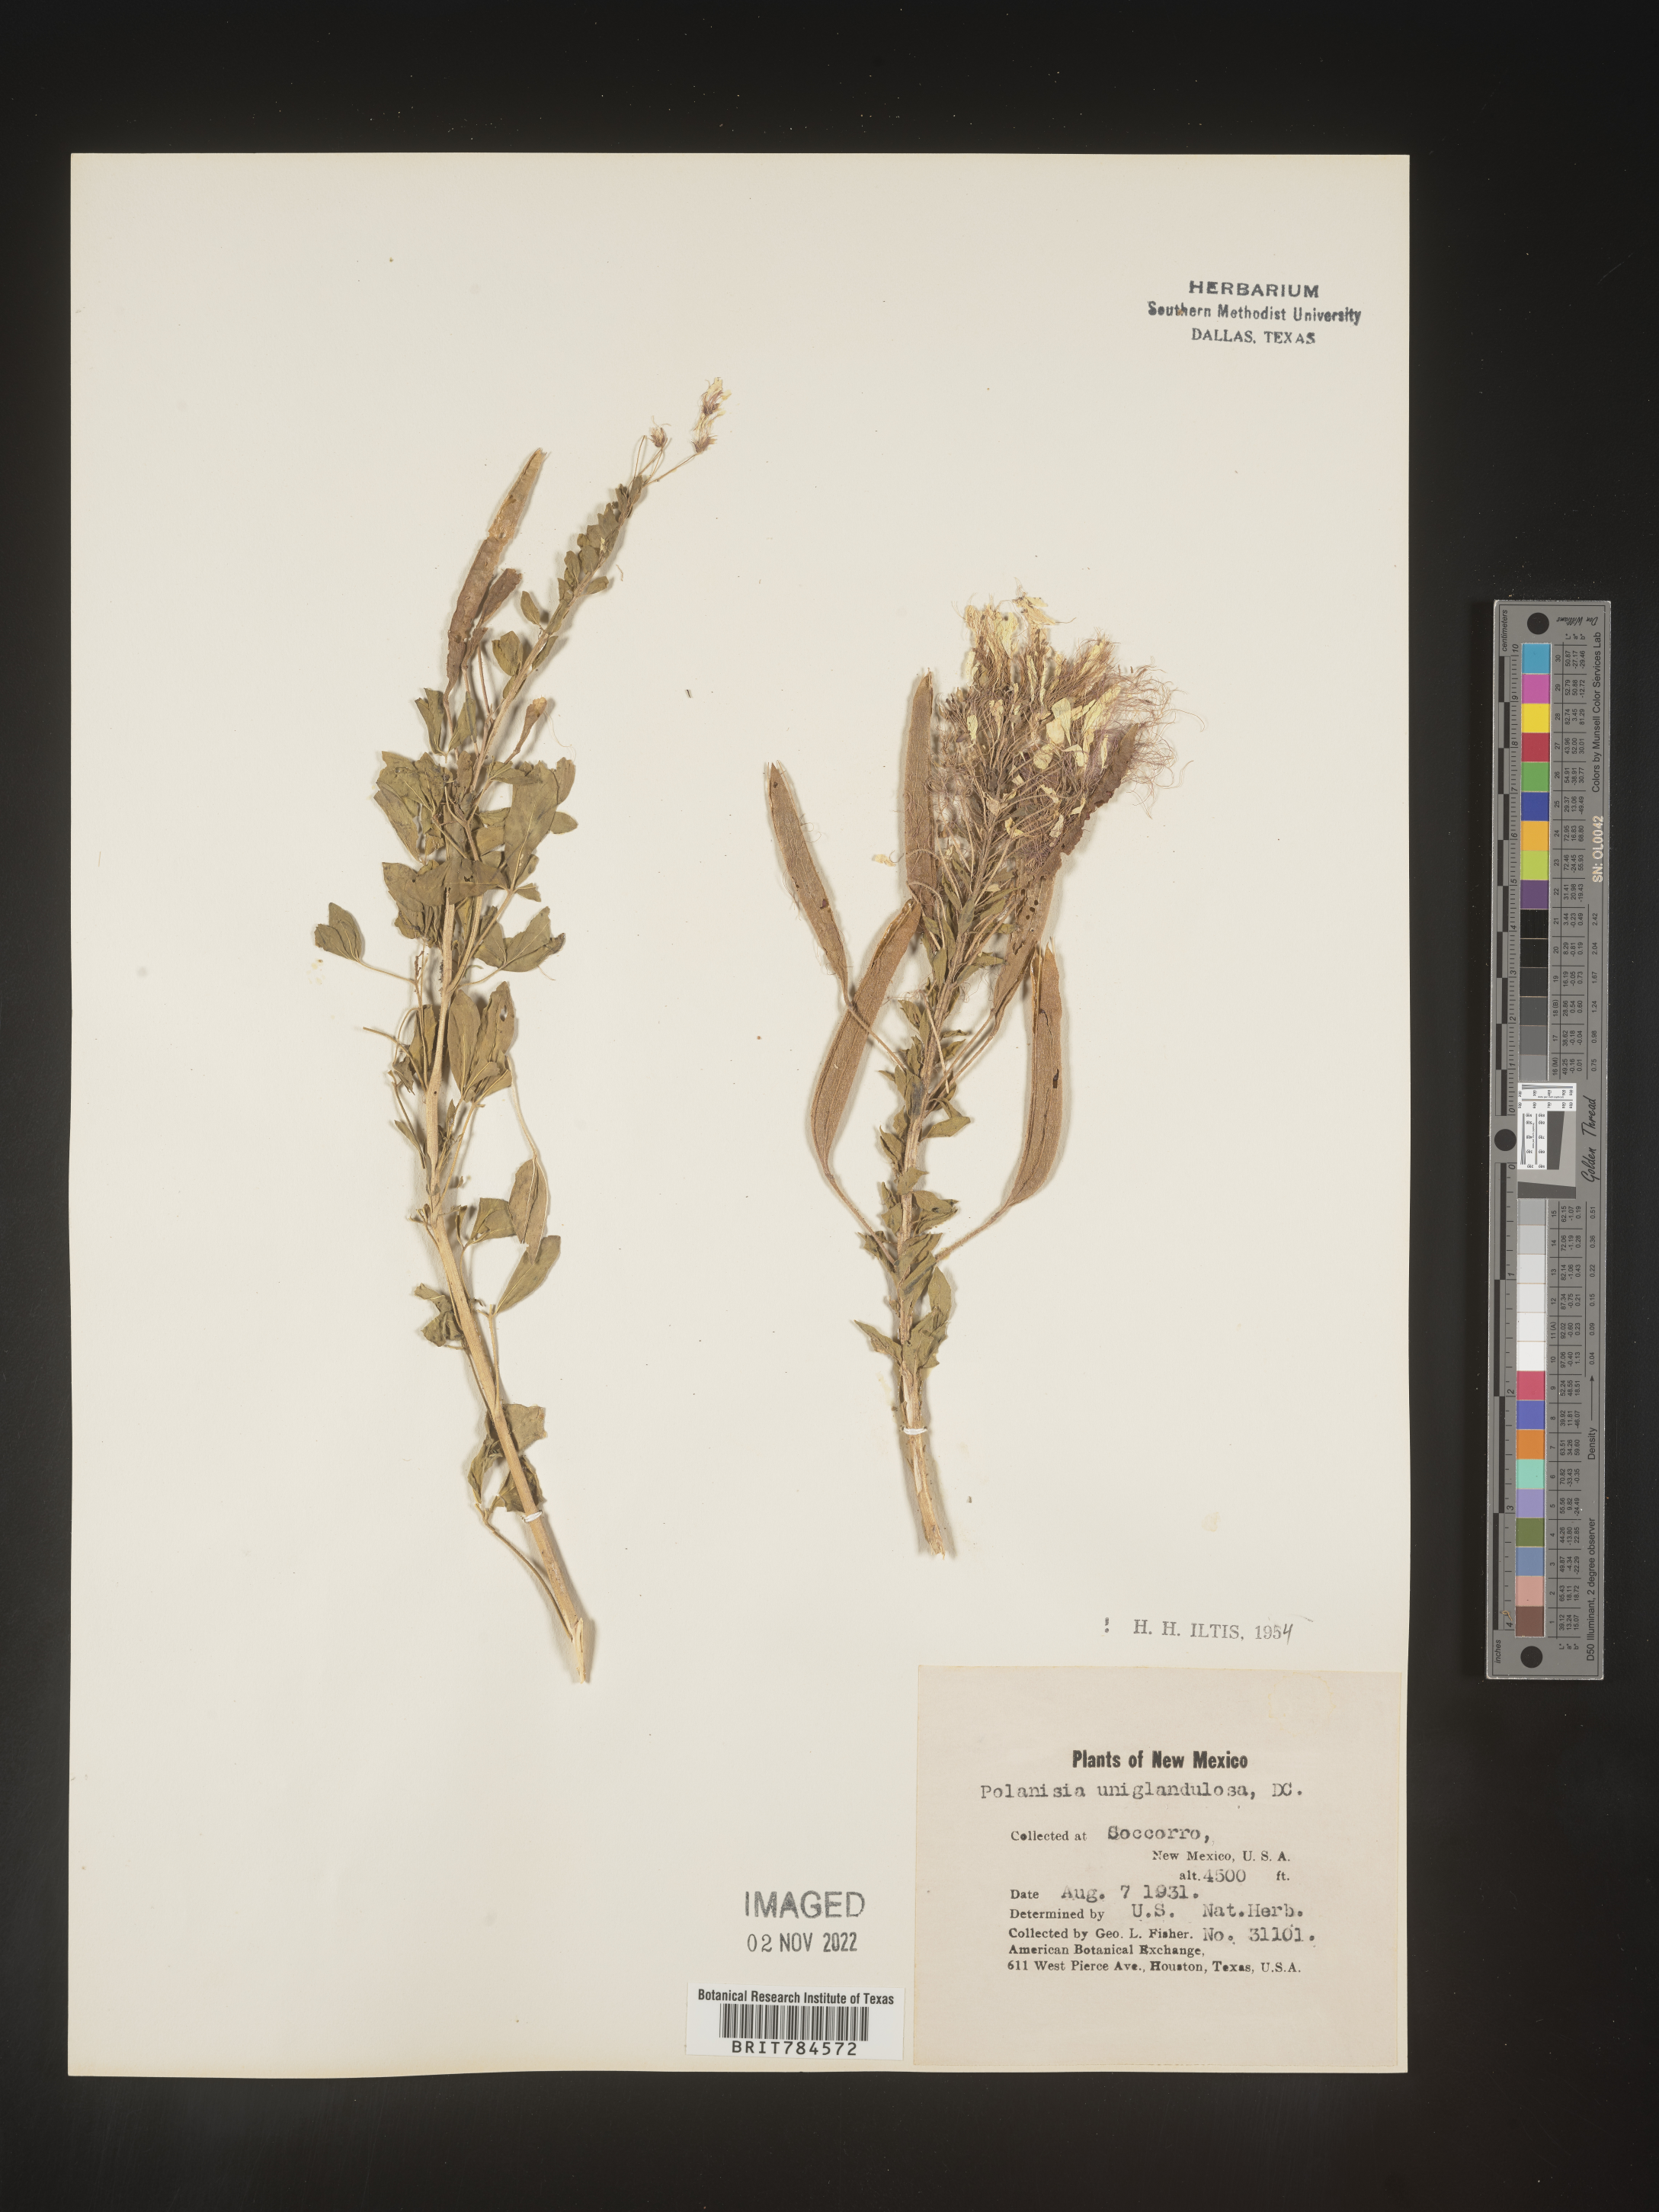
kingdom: Plantae
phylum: Tracheophyta
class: Magnoliopsida
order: Brassicales
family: Cleomaceae
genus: Polanisia
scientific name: Polanisia
